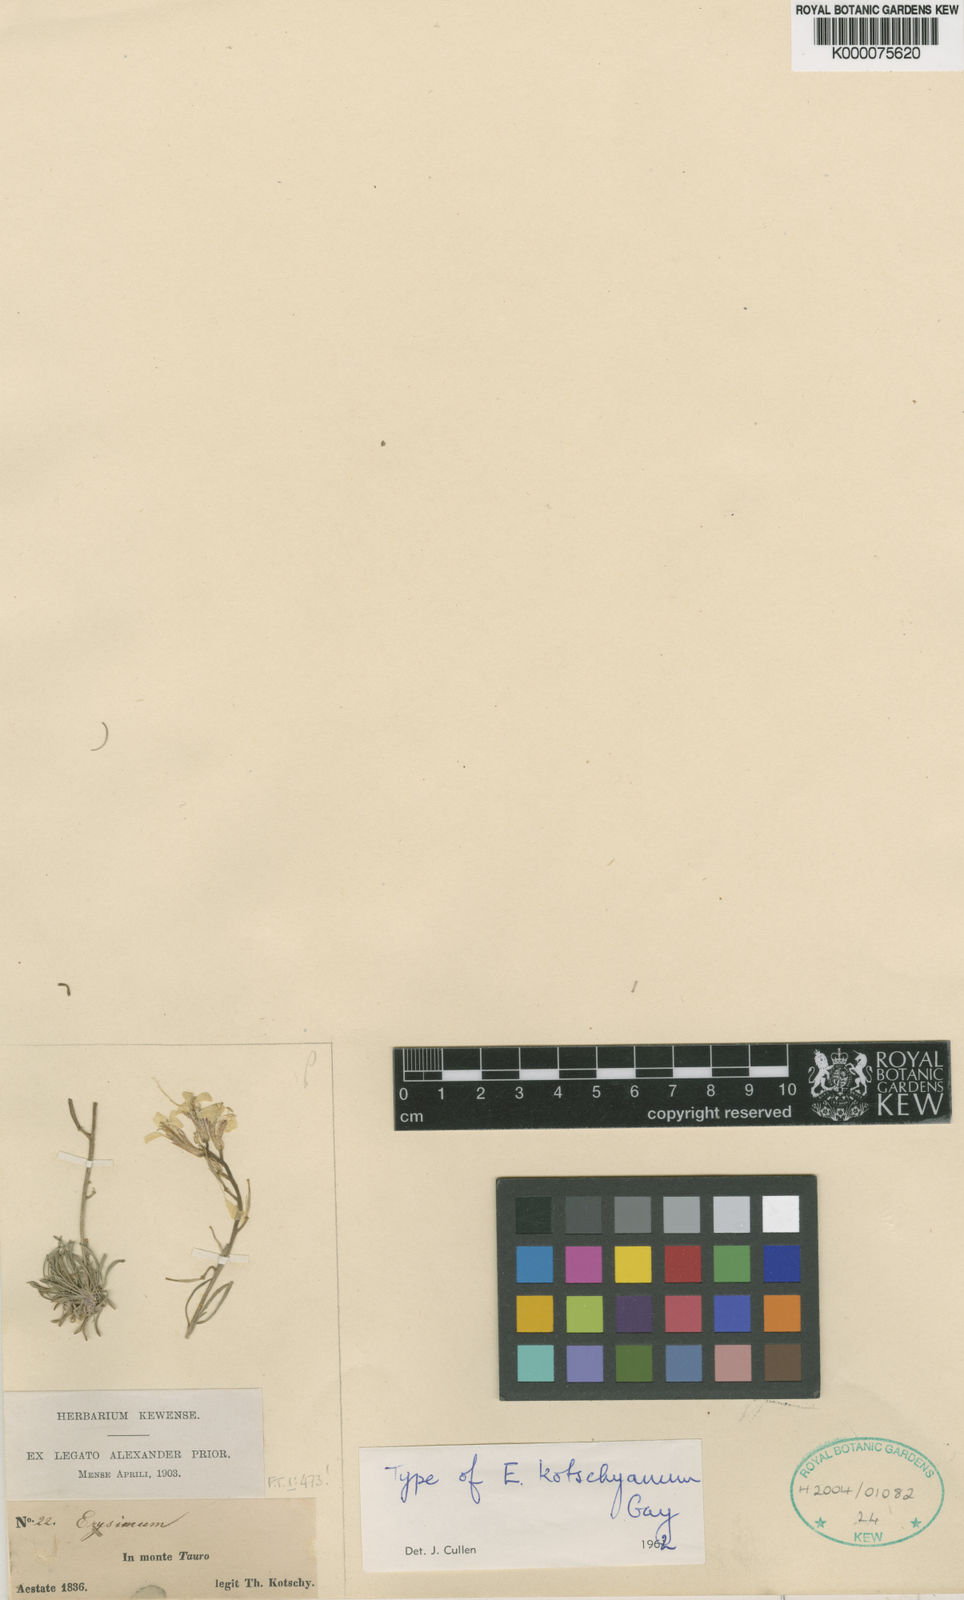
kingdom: Plantae
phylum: Tracheophyta
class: Magnoliopsida
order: Brassicales
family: Brassicaceae
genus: Erysimum
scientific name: Erysimum kotschyanum
